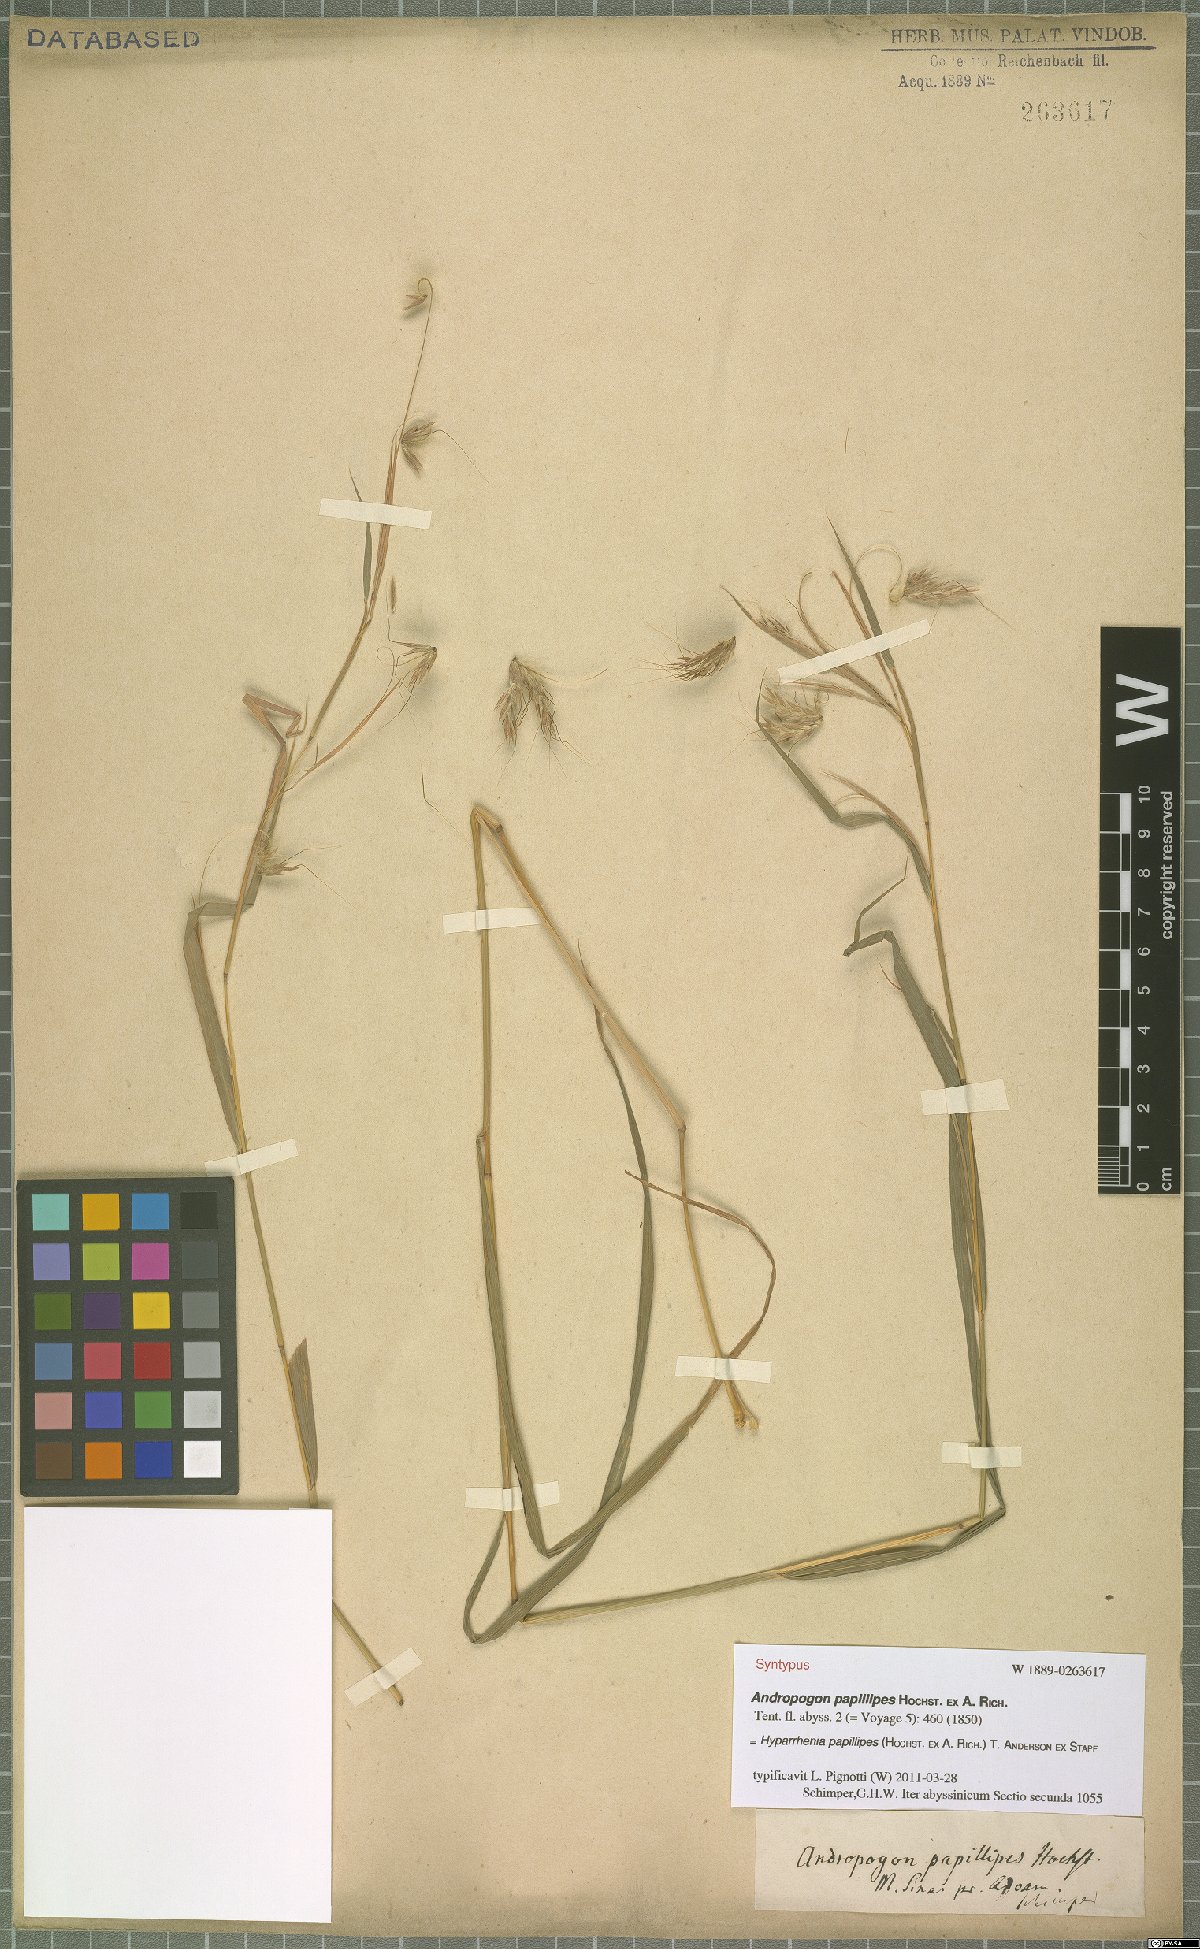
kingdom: Plantae
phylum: Tracheophyta
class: Liliopsida
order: Poales
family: Poaceae
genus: Hyparrhenia
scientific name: Hyparrhenia papillipes
